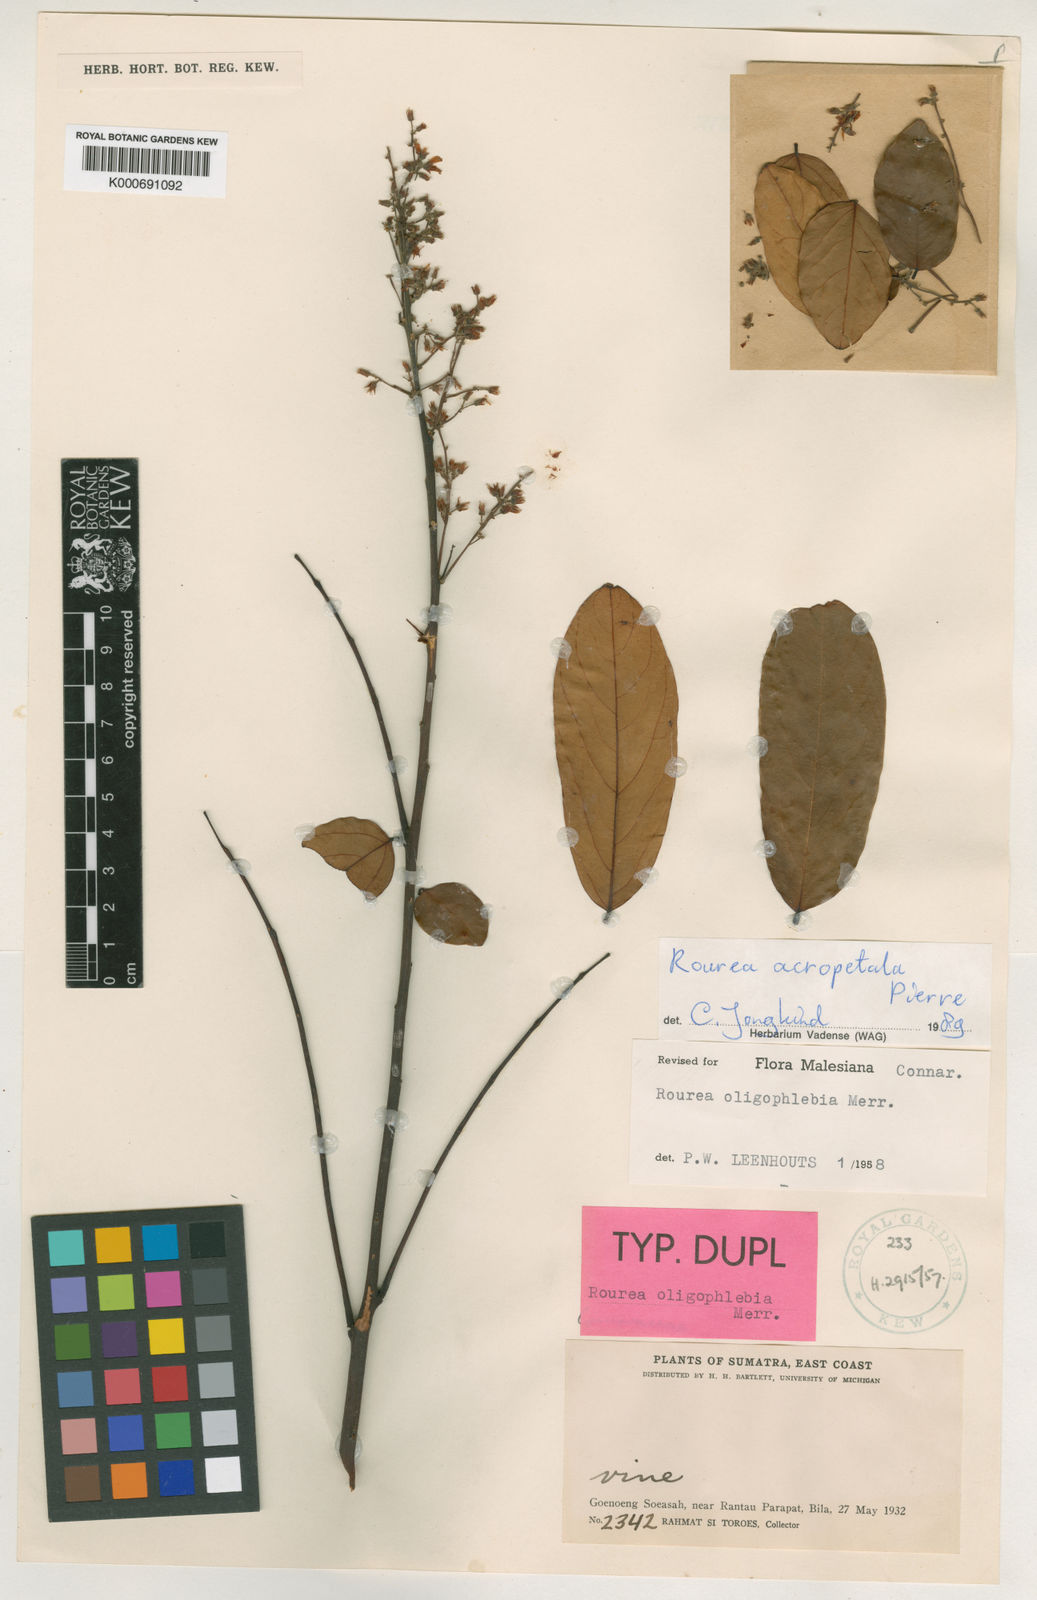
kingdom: Plantae
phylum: Tracheophyta
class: Magnoliopsida
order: Oxalidales
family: Connaraceae
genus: Rourea
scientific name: Rourea oligophlebia
